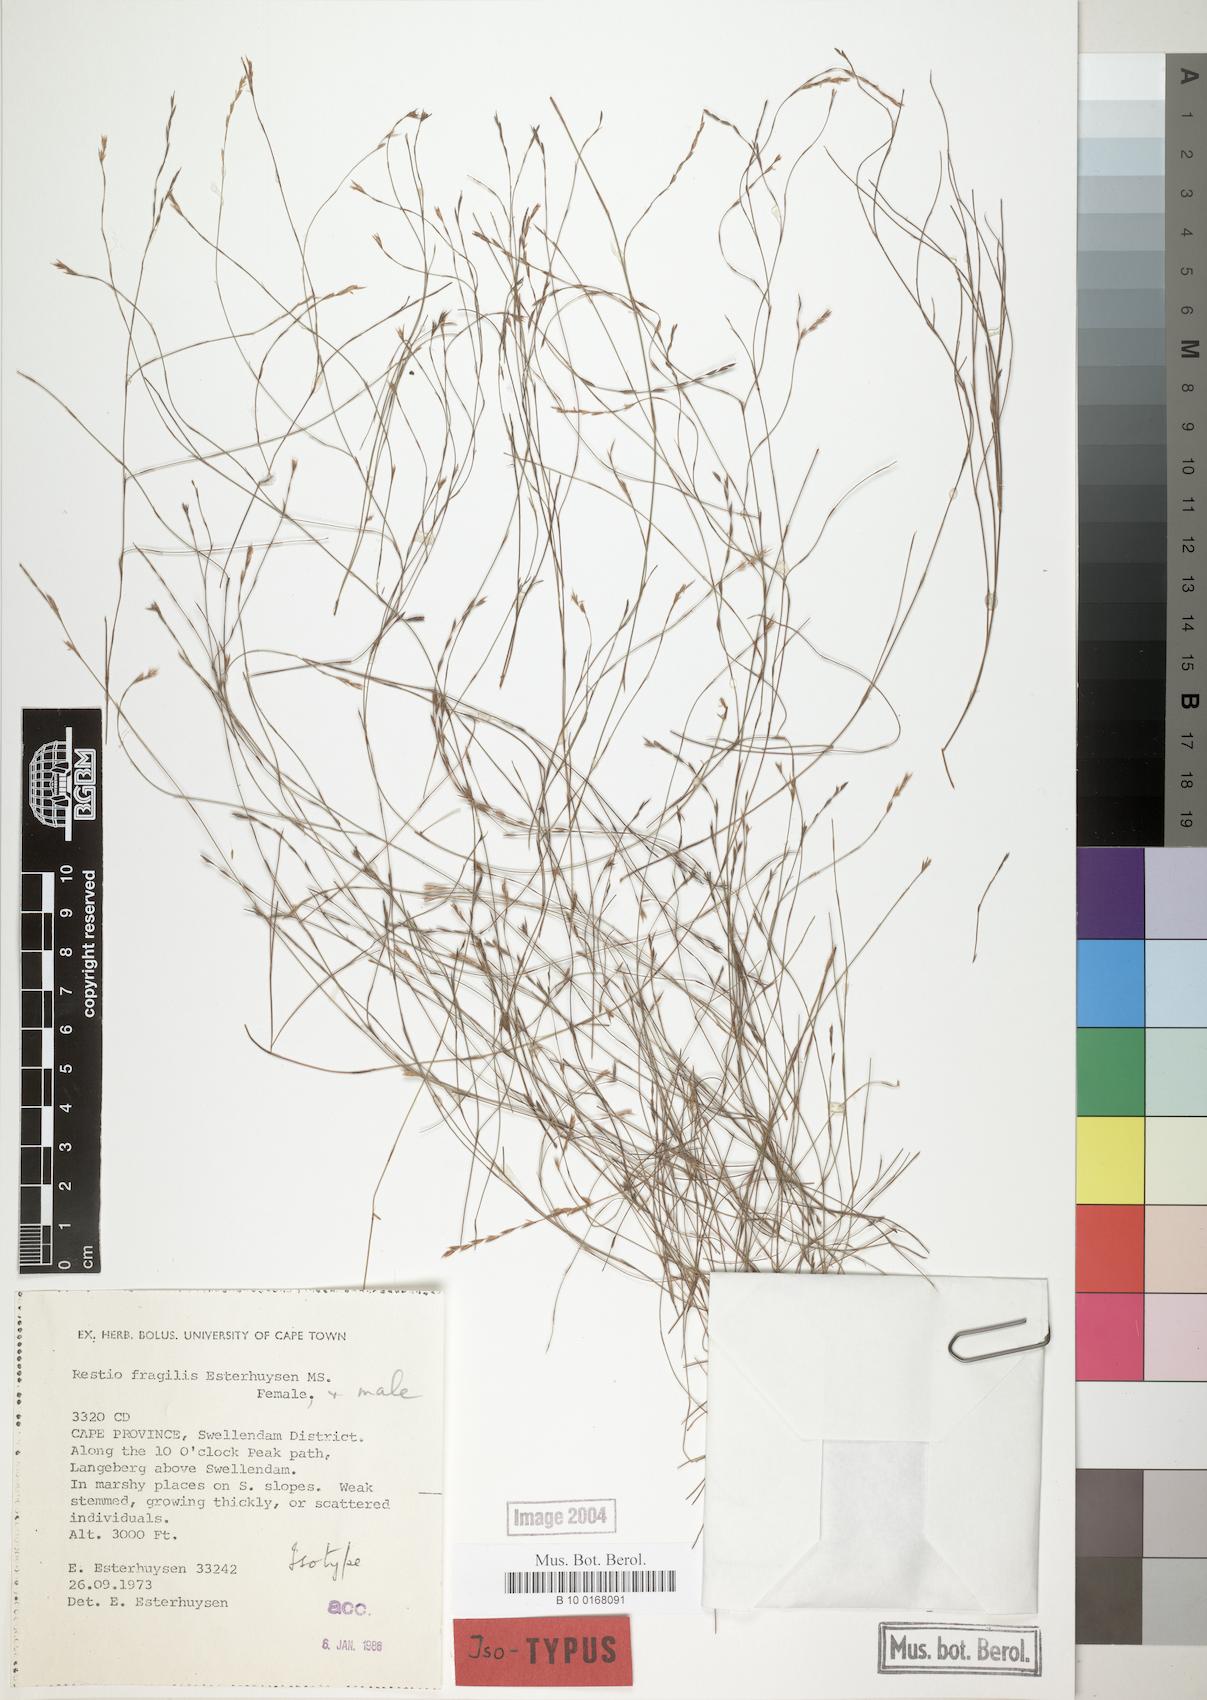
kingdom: Plantae
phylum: Tracheophyta
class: Liliopsida
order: Poales
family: Restionaceae
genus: Restio
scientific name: Restio fragilis
